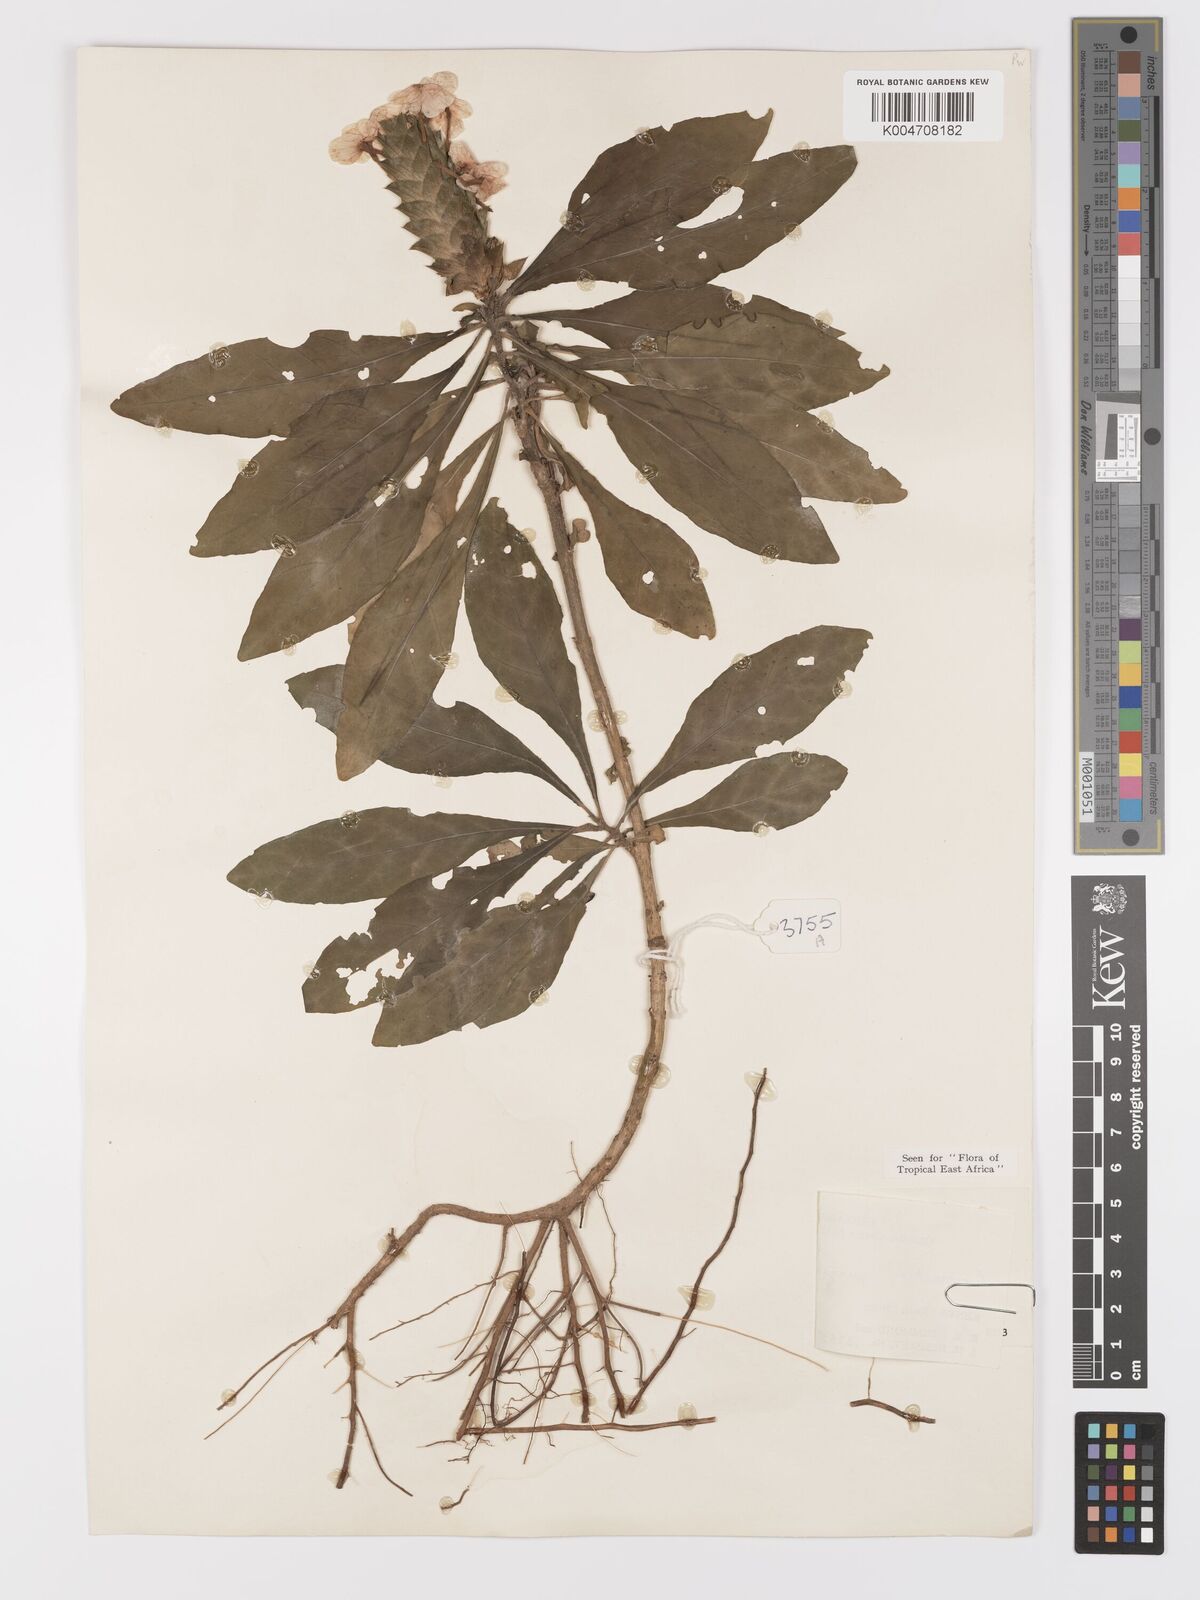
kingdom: Plantae
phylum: Tracheophyta
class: Magnoliopsida
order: Lamiales
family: Acanthaceae
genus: Crossandra
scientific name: Crossandra pungens
